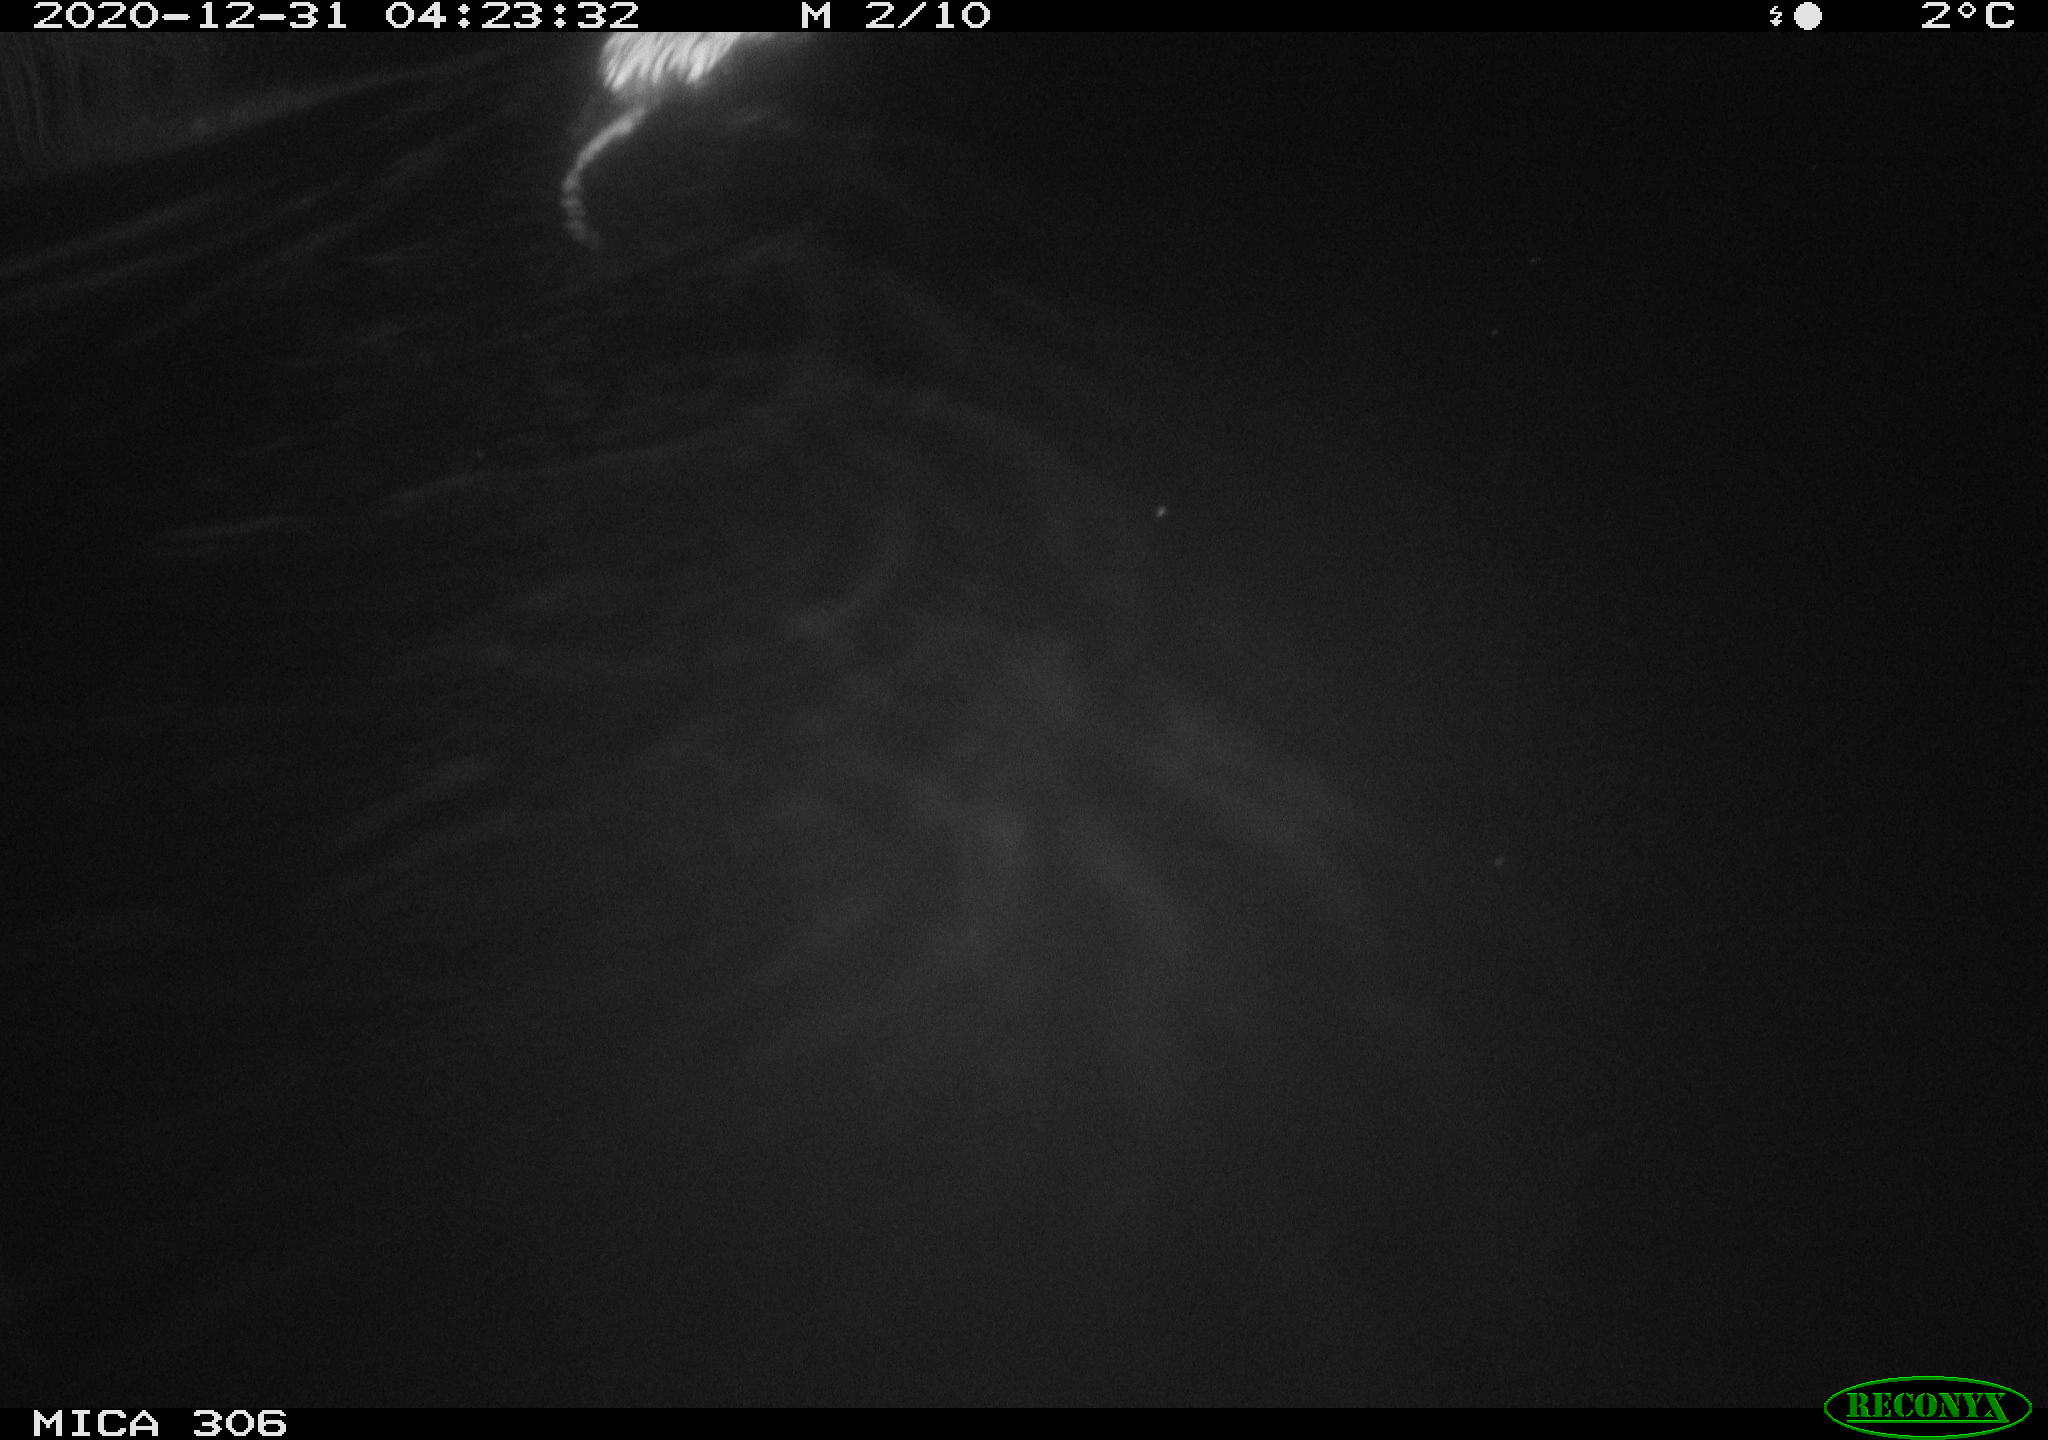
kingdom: Animalia
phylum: Chordata
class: Mammalia
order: Rodentia
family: Cricetidae
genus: Ondatra
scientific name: Ondatra zibethicus
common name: Muskrat
